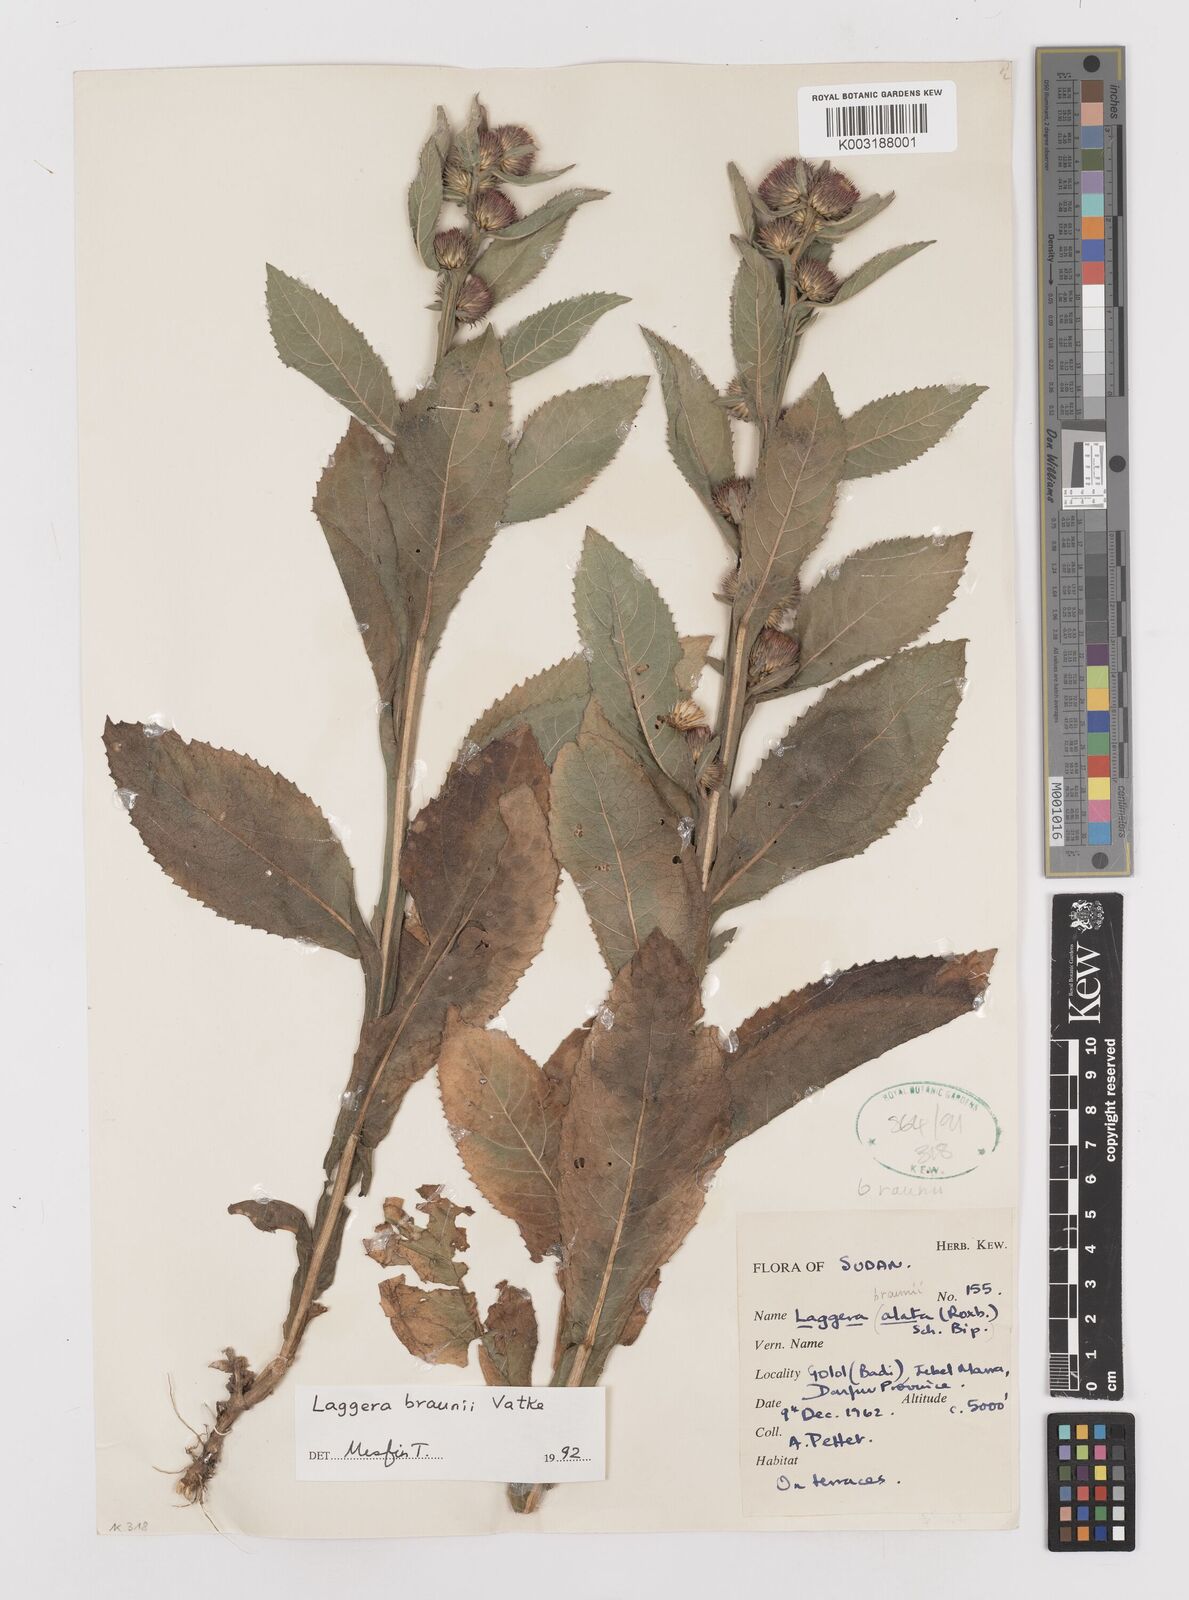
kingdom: Plantae
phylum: Tracheophyta
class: Magnoliopsida
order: Asterales
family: Asteraceae
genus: Laggera
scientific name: Laggera braunii
